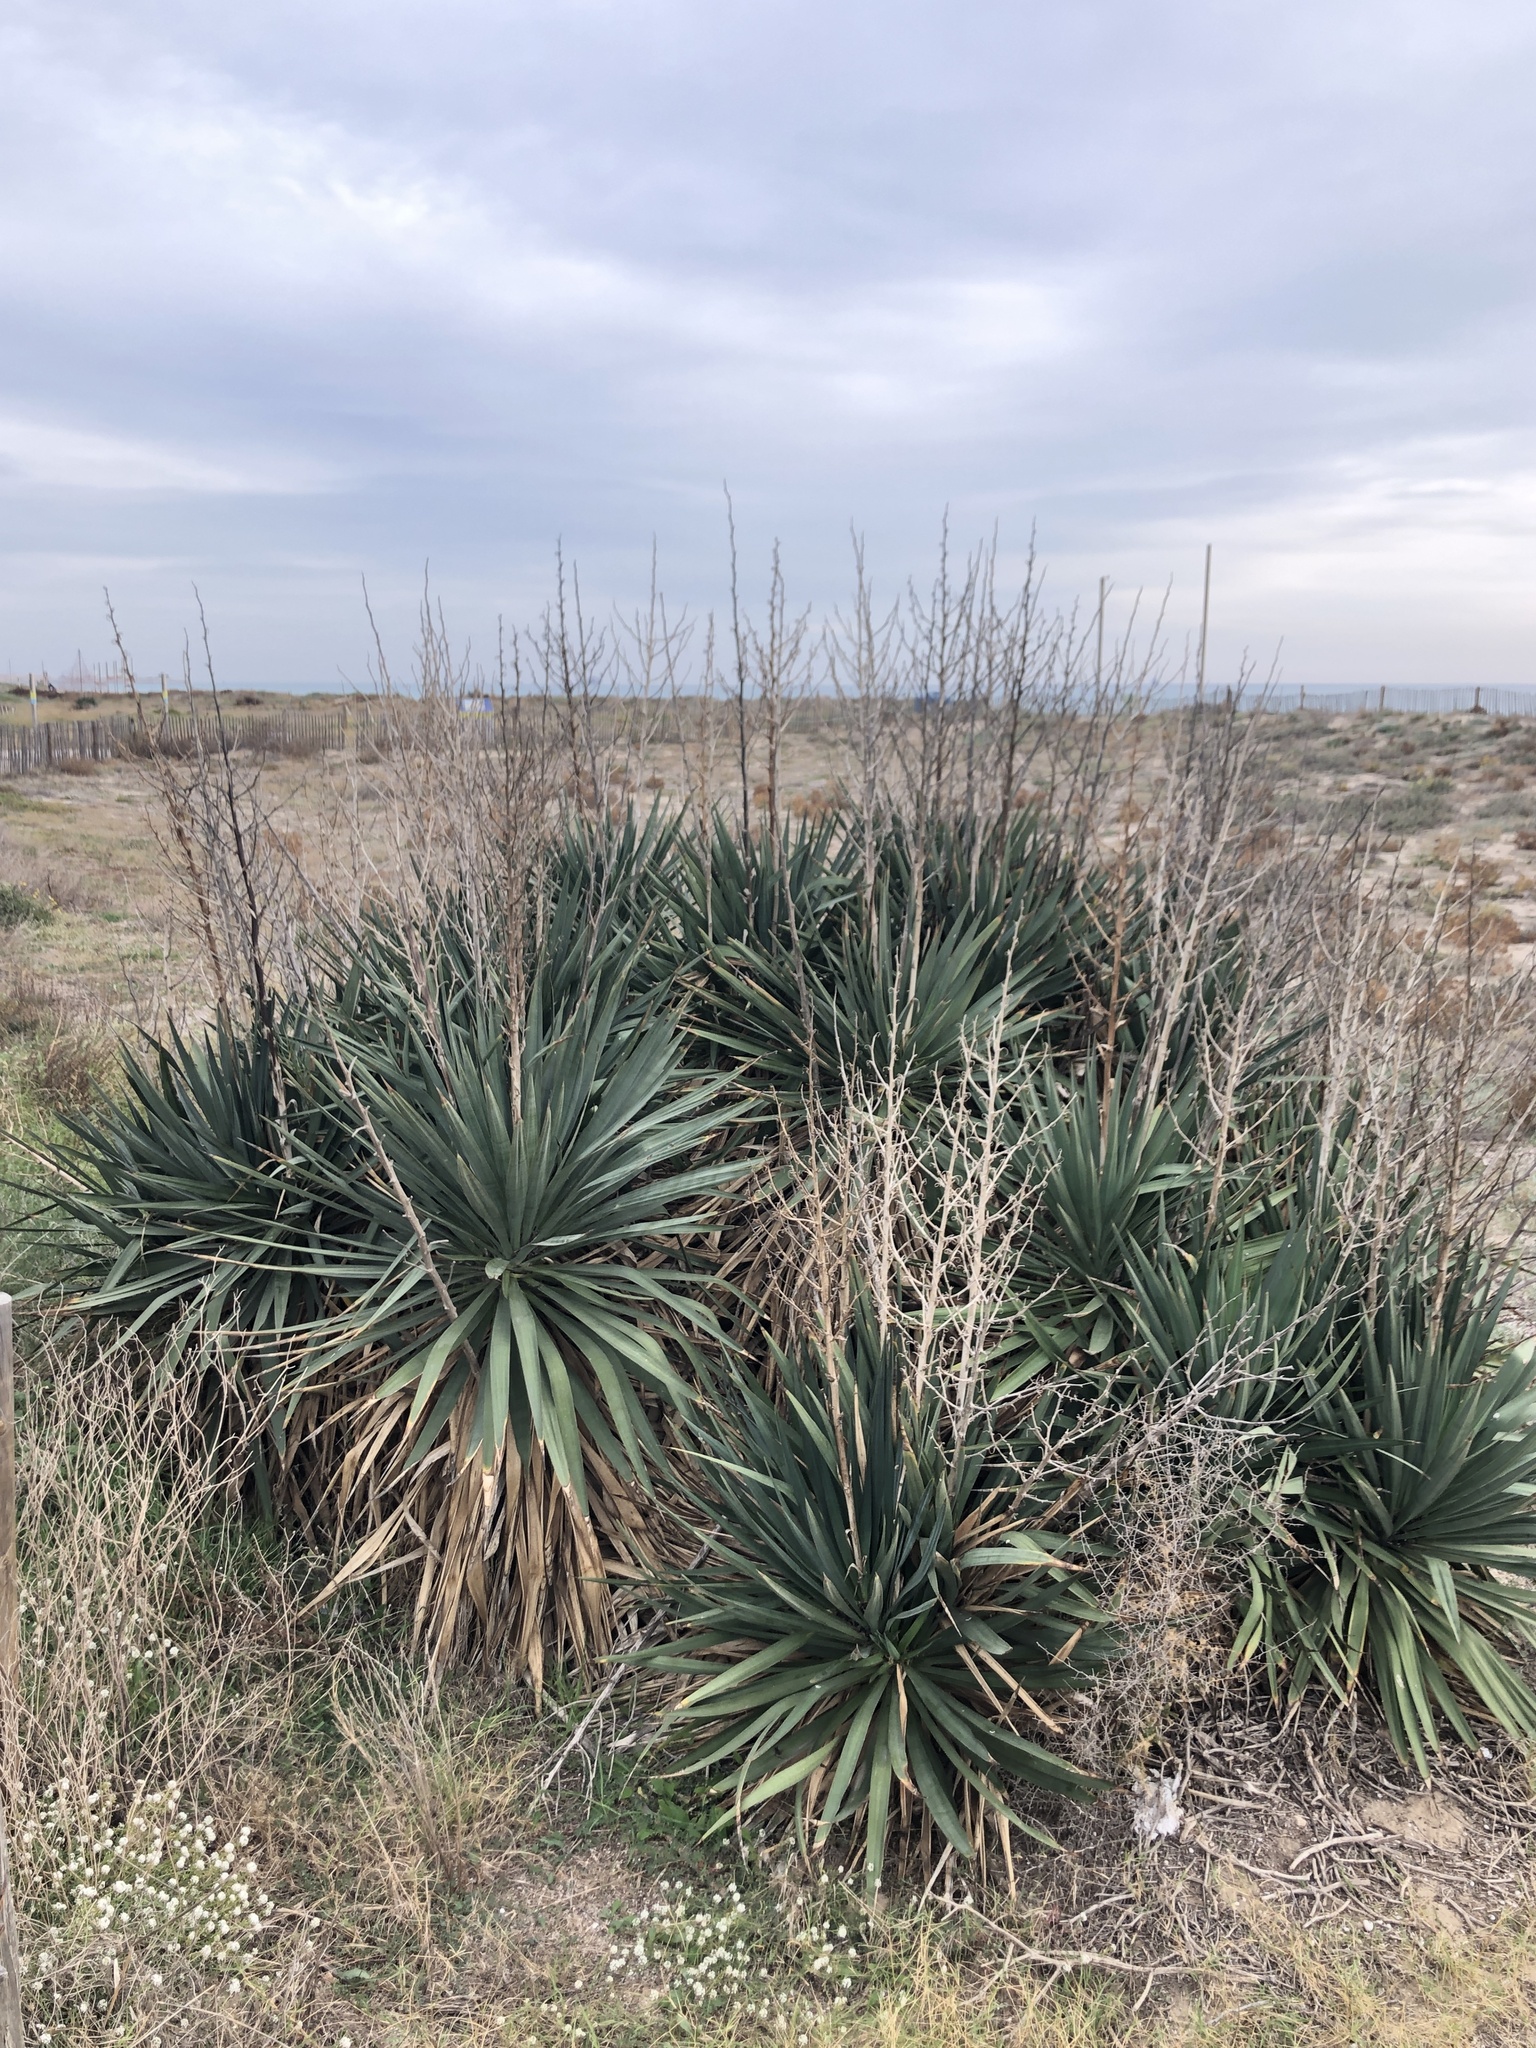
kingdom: Plantae
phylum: Tracheophyta
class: Liliopsida
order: Asparagales
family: Asparagaceae
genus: Yucca
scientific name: Yucca aloifolia
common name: Aloe yucca
